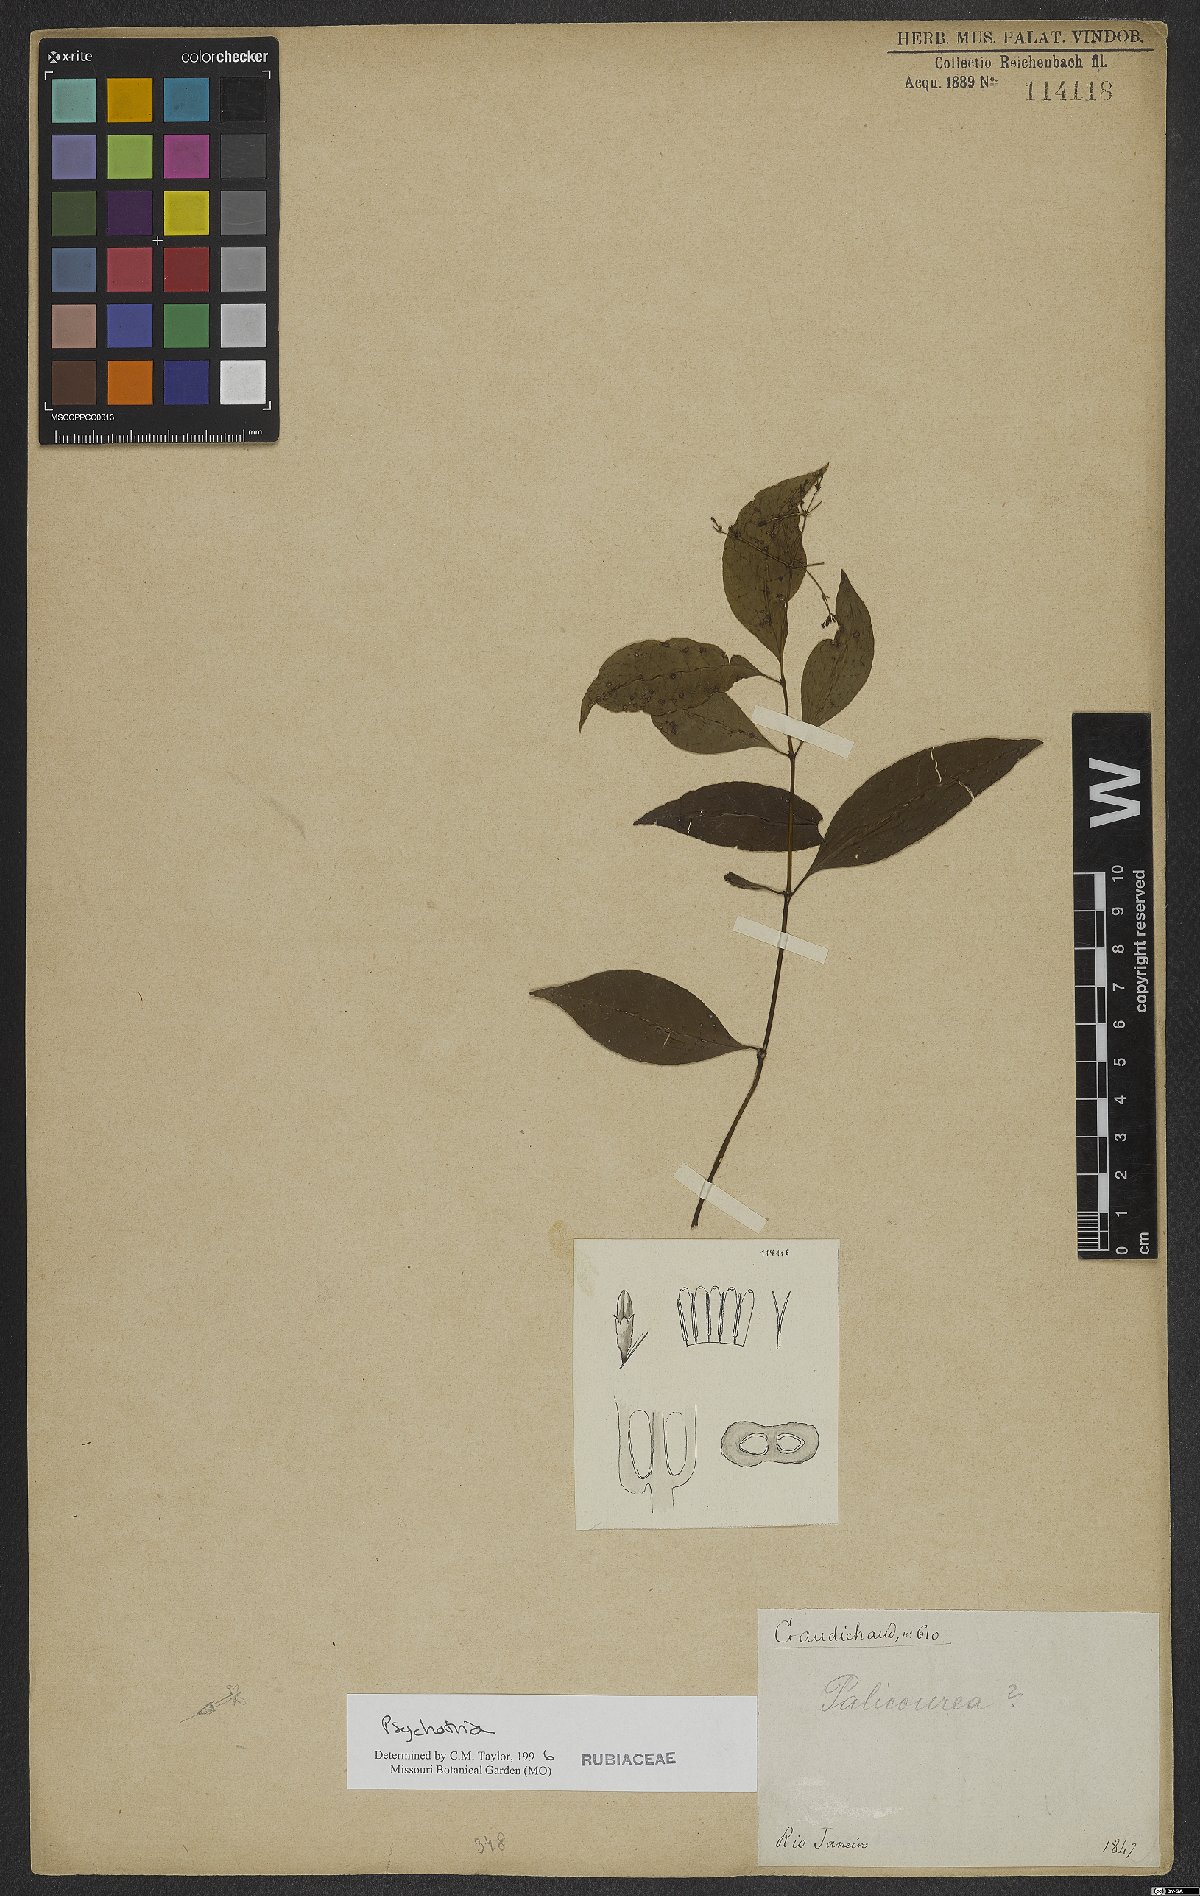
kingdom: Plantae
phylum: Tracheophyta
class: Magnoliopsida
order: Gentianales
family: Rubiaceae
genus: Psychotria
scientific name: Psychotria
